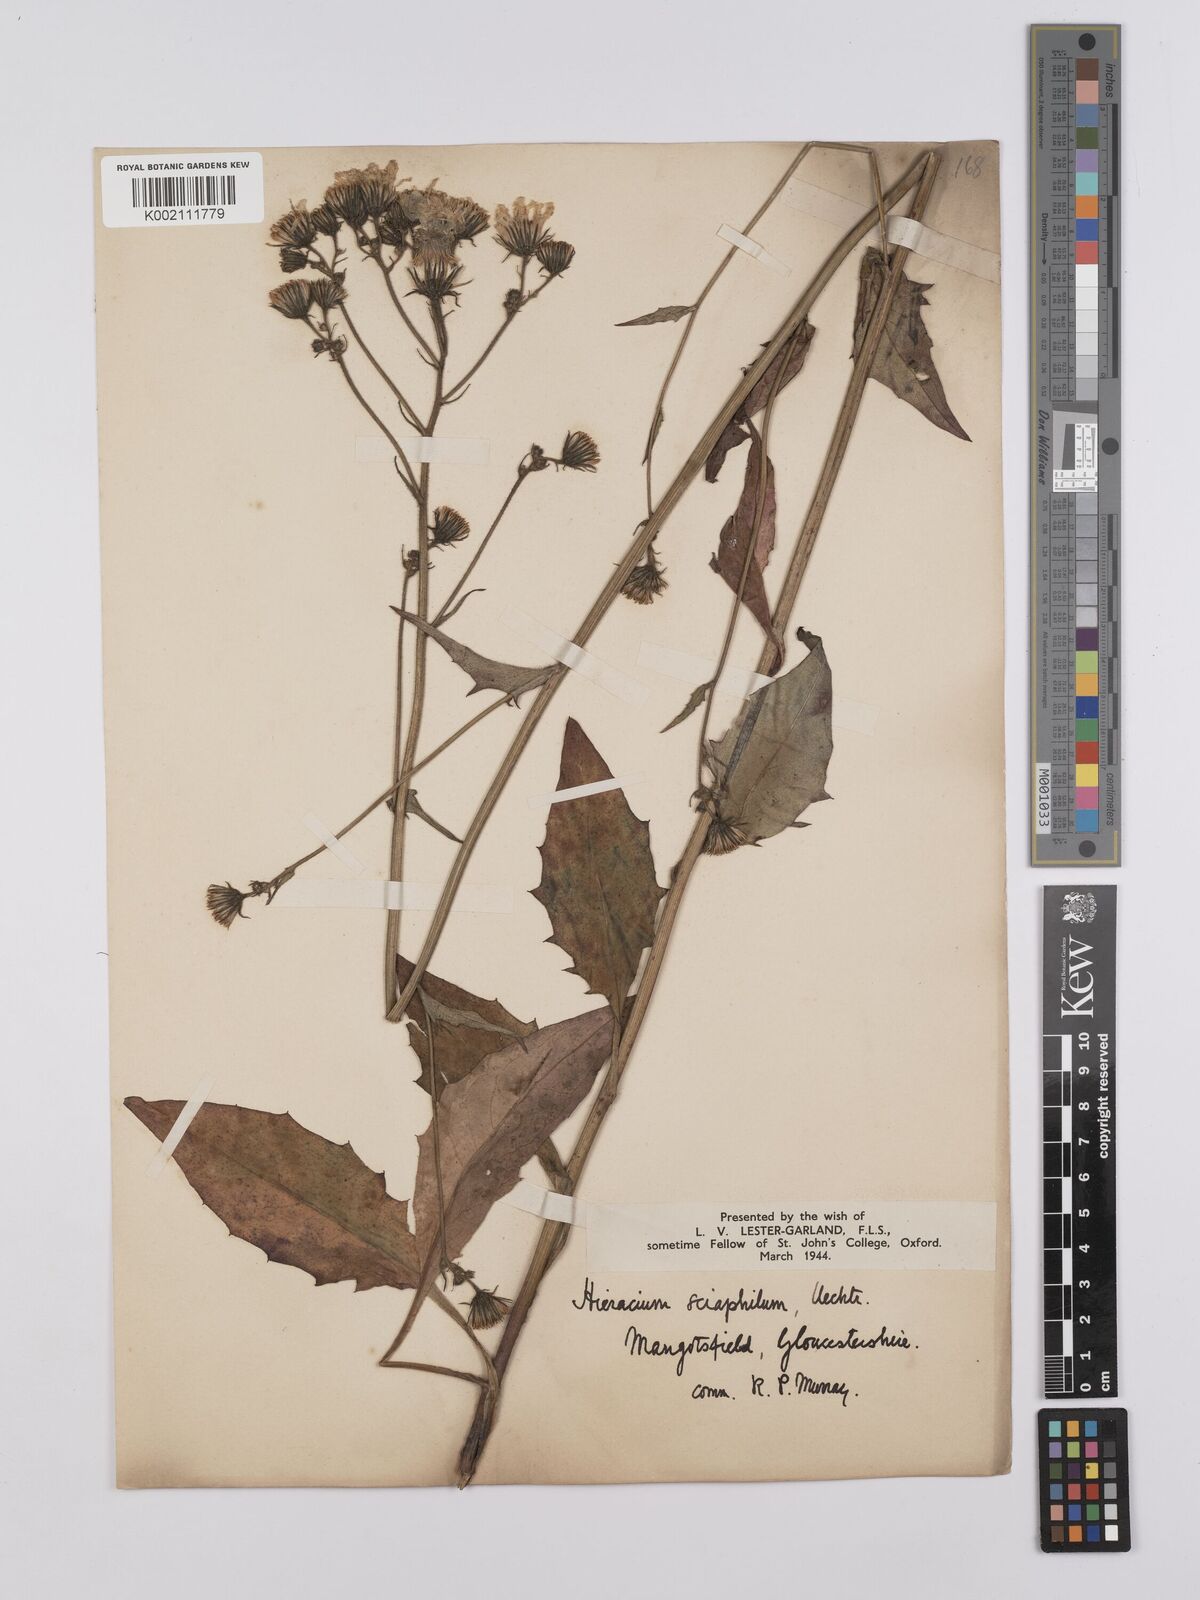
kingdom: Plantae
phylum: Tracheophyta
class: Magnoliopsida
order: Asterales
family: Asteraceae
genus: Hieracium
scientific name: Hieracium lachenalii
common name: Common hawkweed
